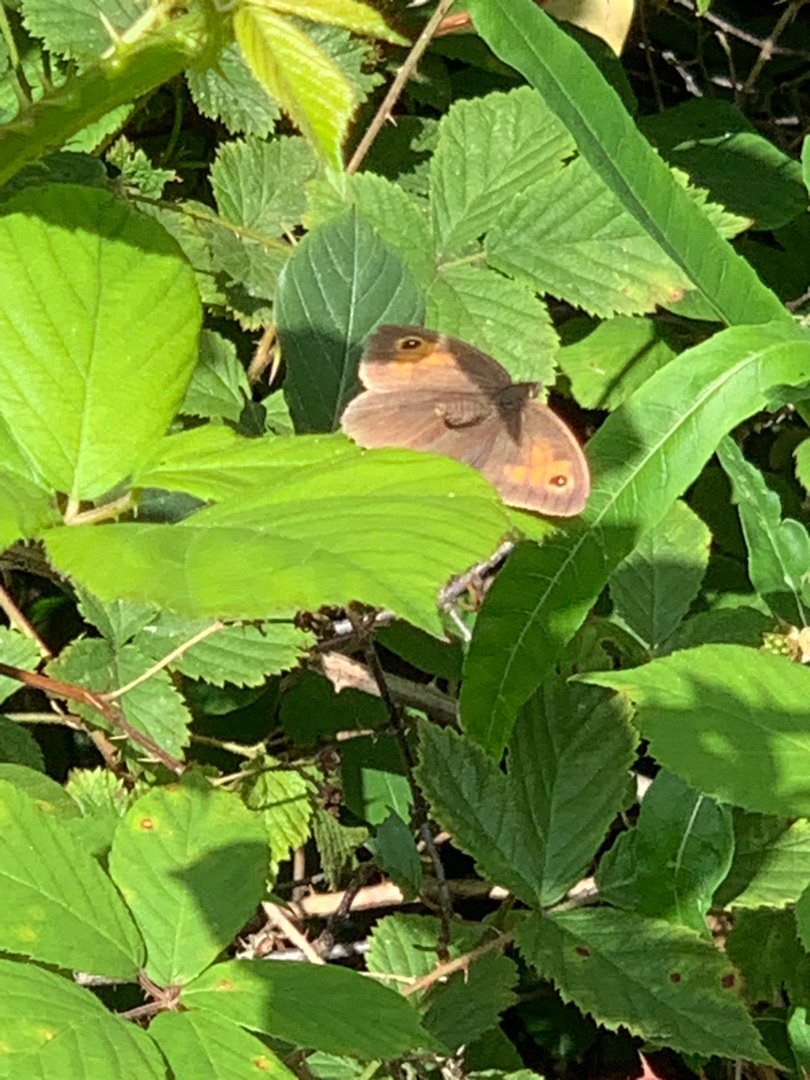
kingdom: Animalia
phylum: Arthropoda
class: Insecta
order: Lepidoptera
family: Nymphalidae
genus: Maniola
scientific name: Maniola jurtina
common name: Græsrandøje
